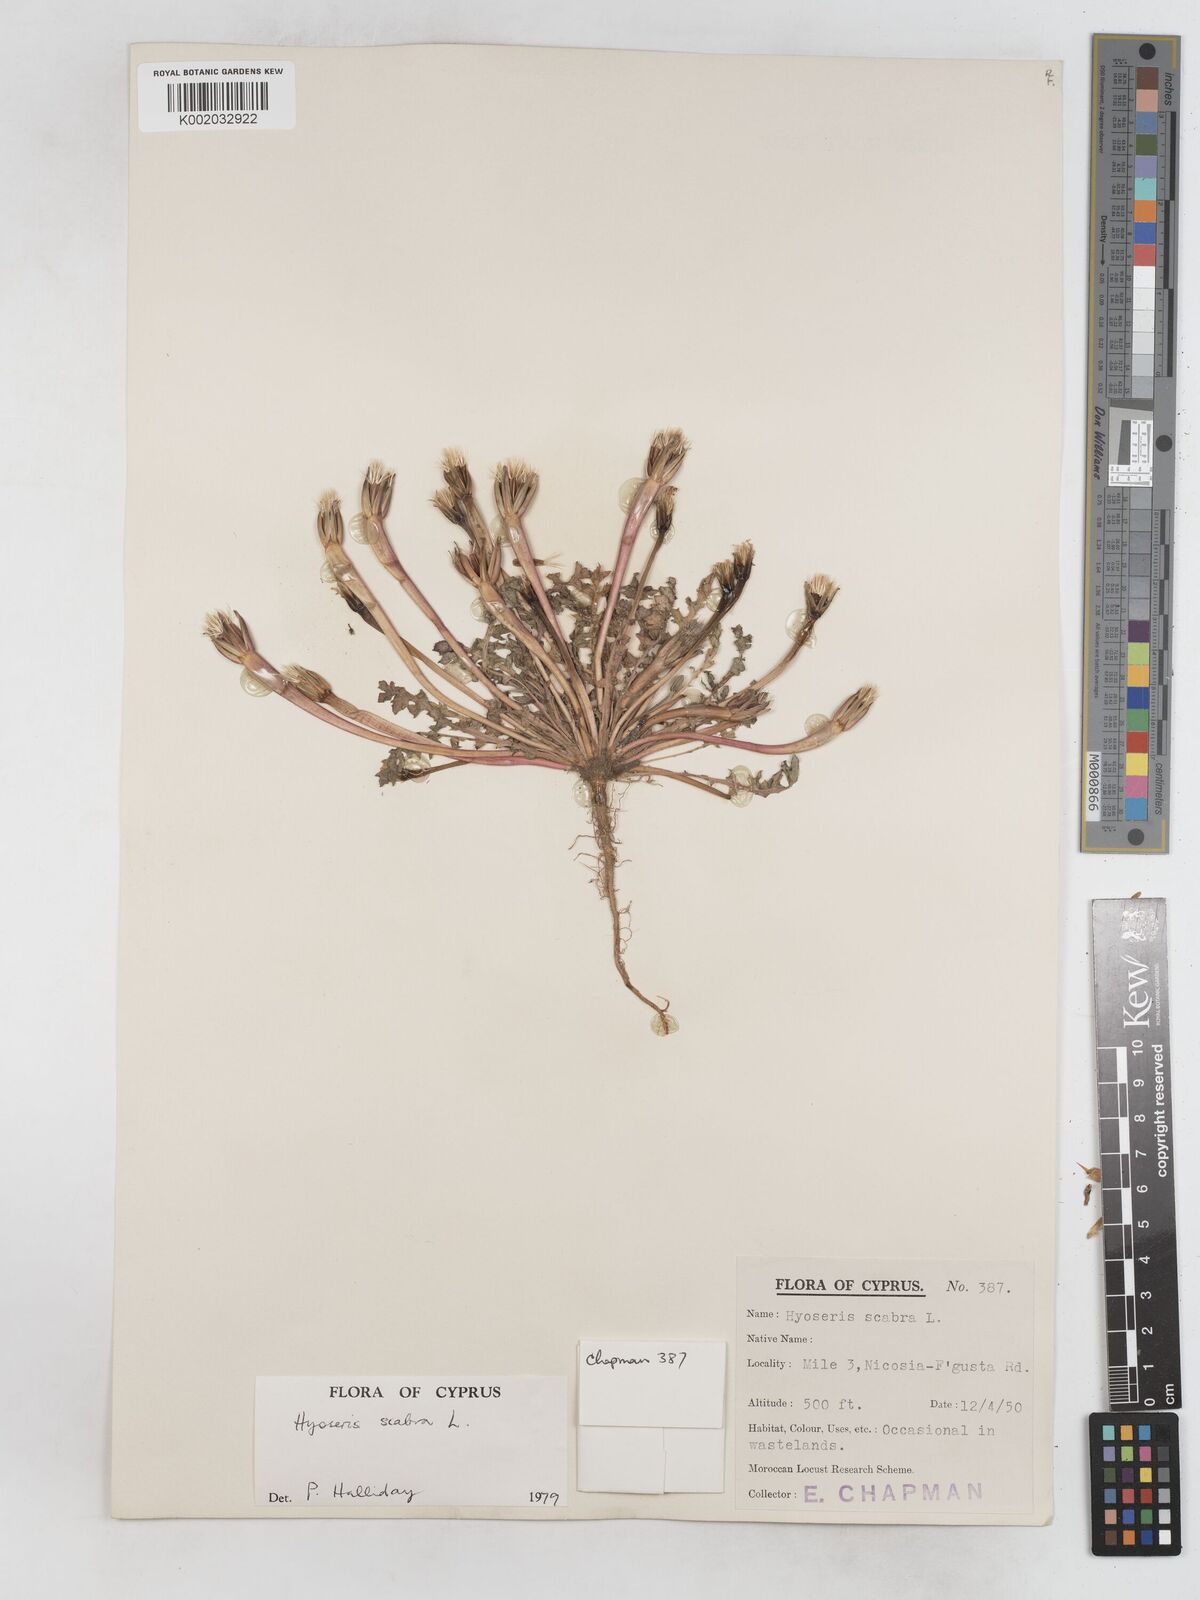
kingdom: Plantae
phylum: Tracheophyta
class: Magnoliopsida
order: Asterales
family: Asteraceae
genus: Hyoseris
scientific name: Hyoseris scabra
